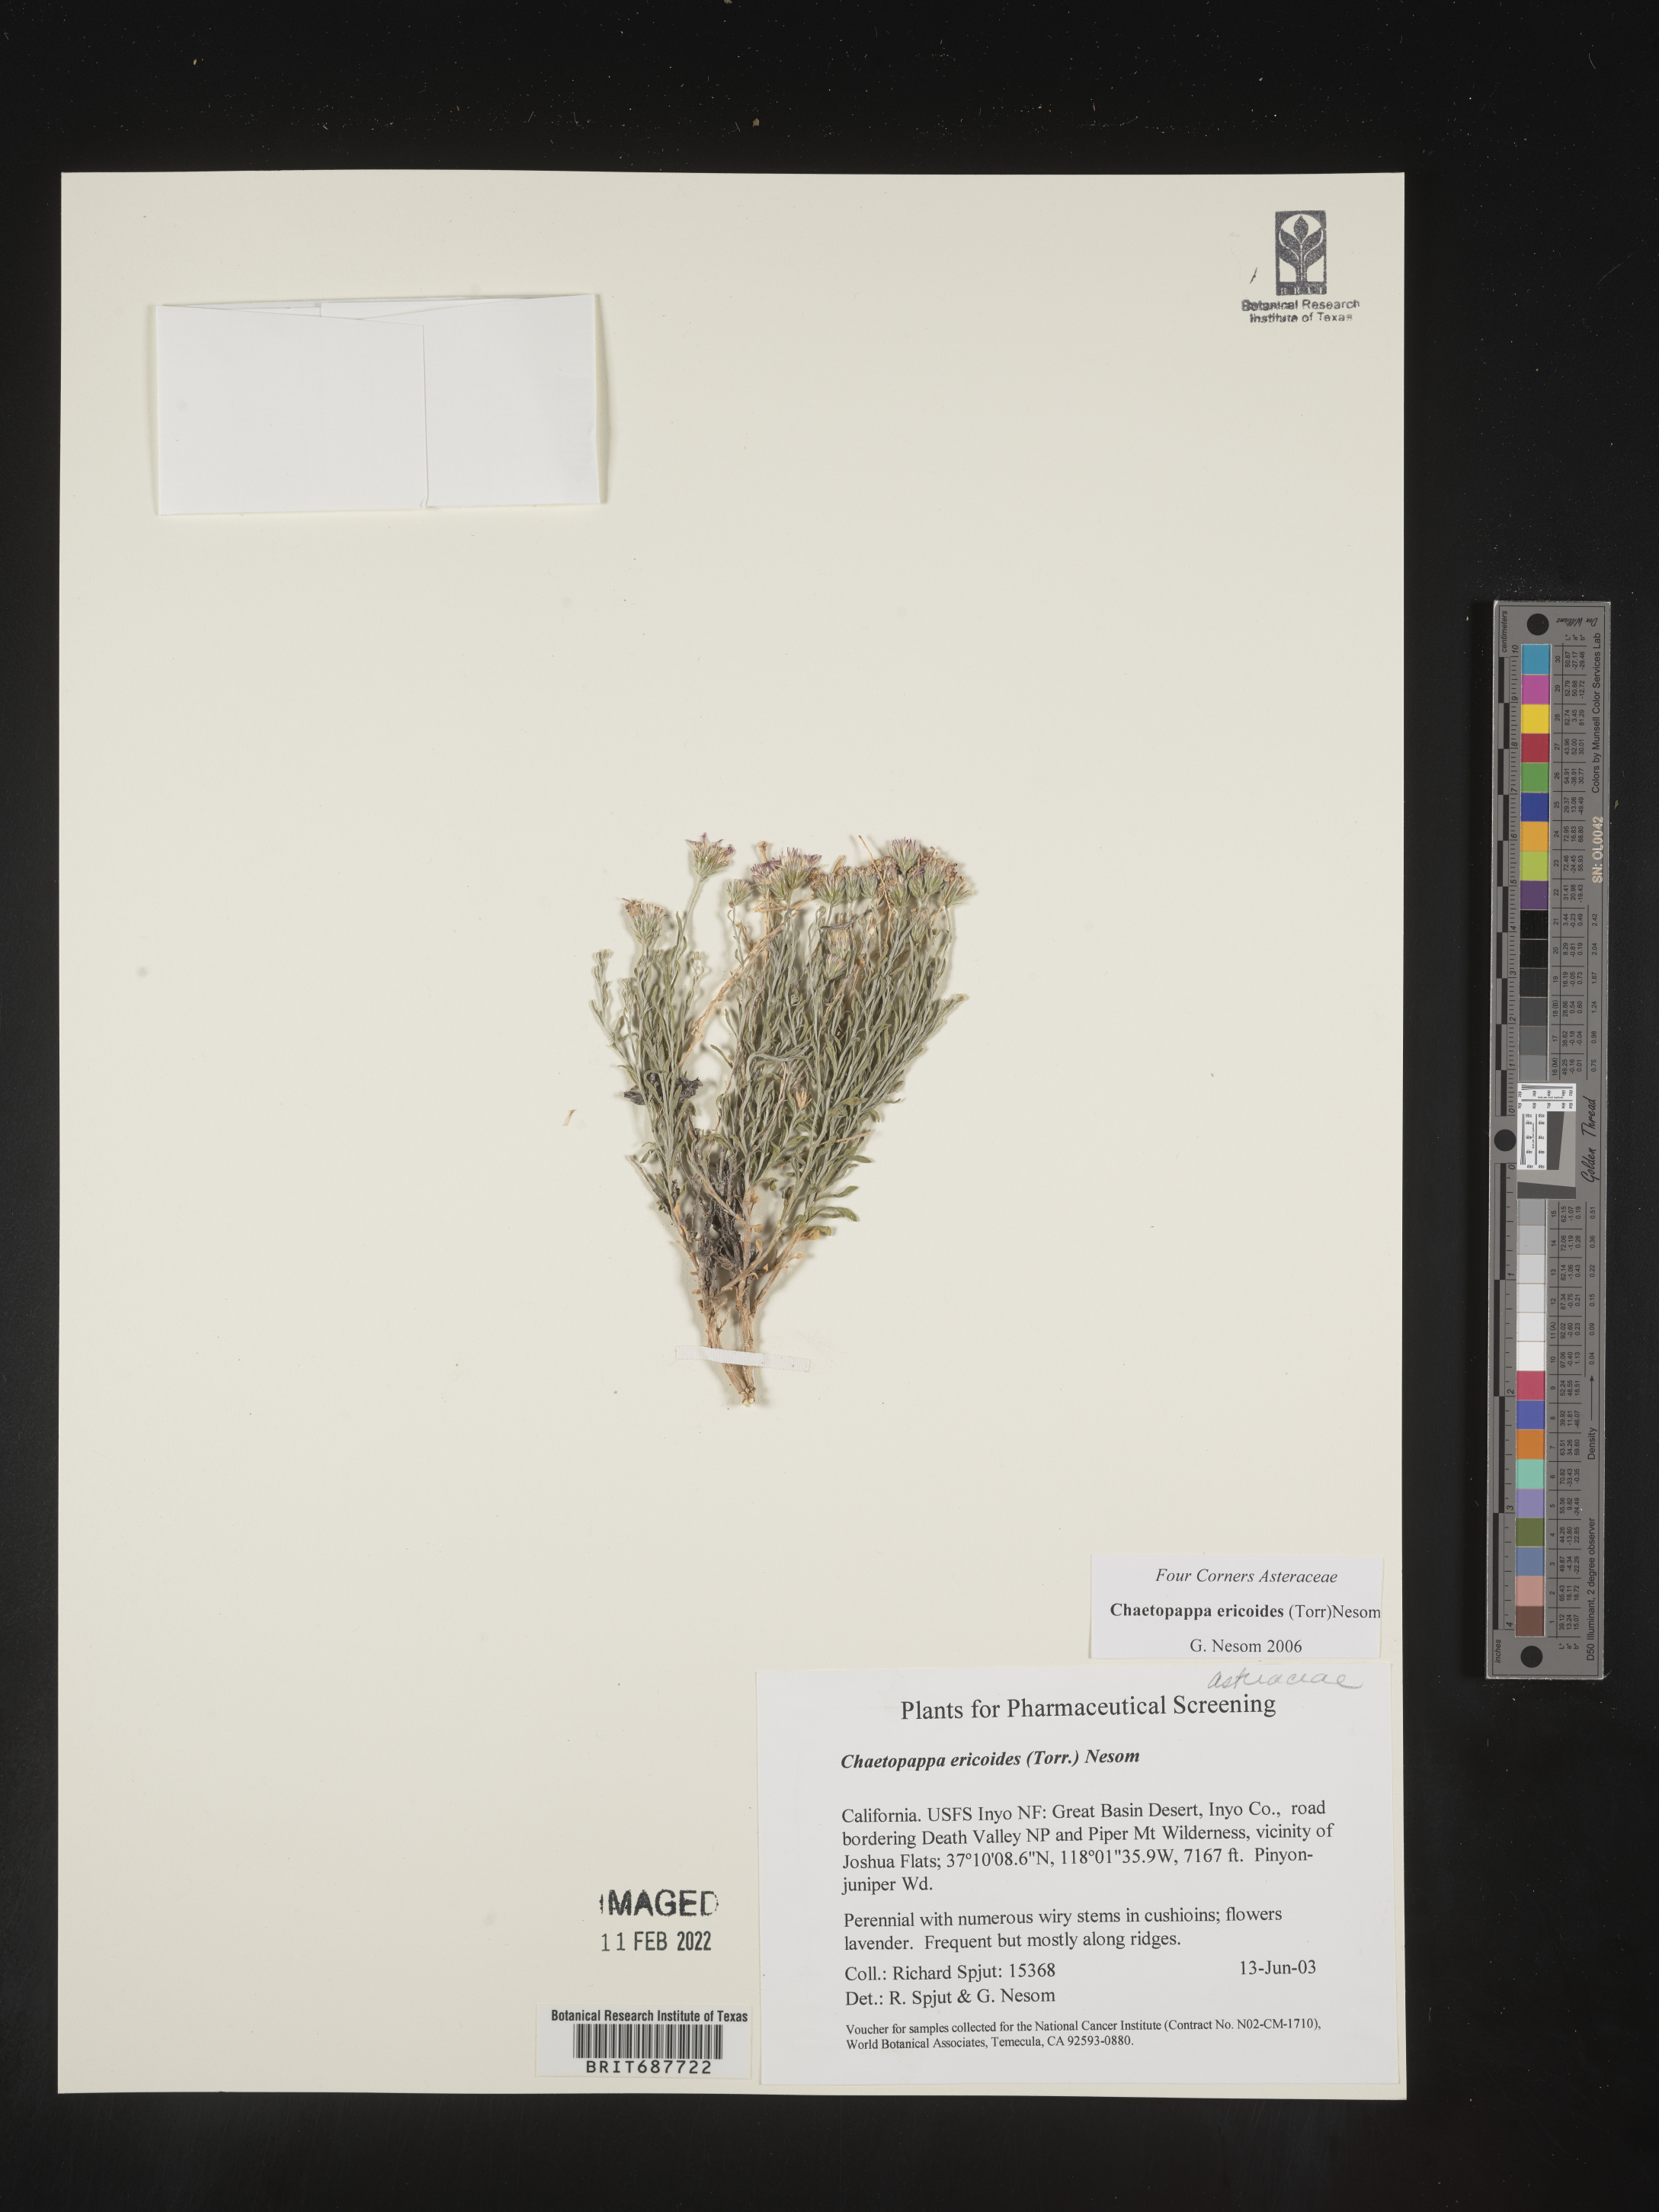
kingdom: Plantae
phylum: Tracheophyta
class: Magnoliopsida
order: Asterales
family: Asteraceae
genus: Chaetopappa
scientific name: Chaetopappa ericoides
